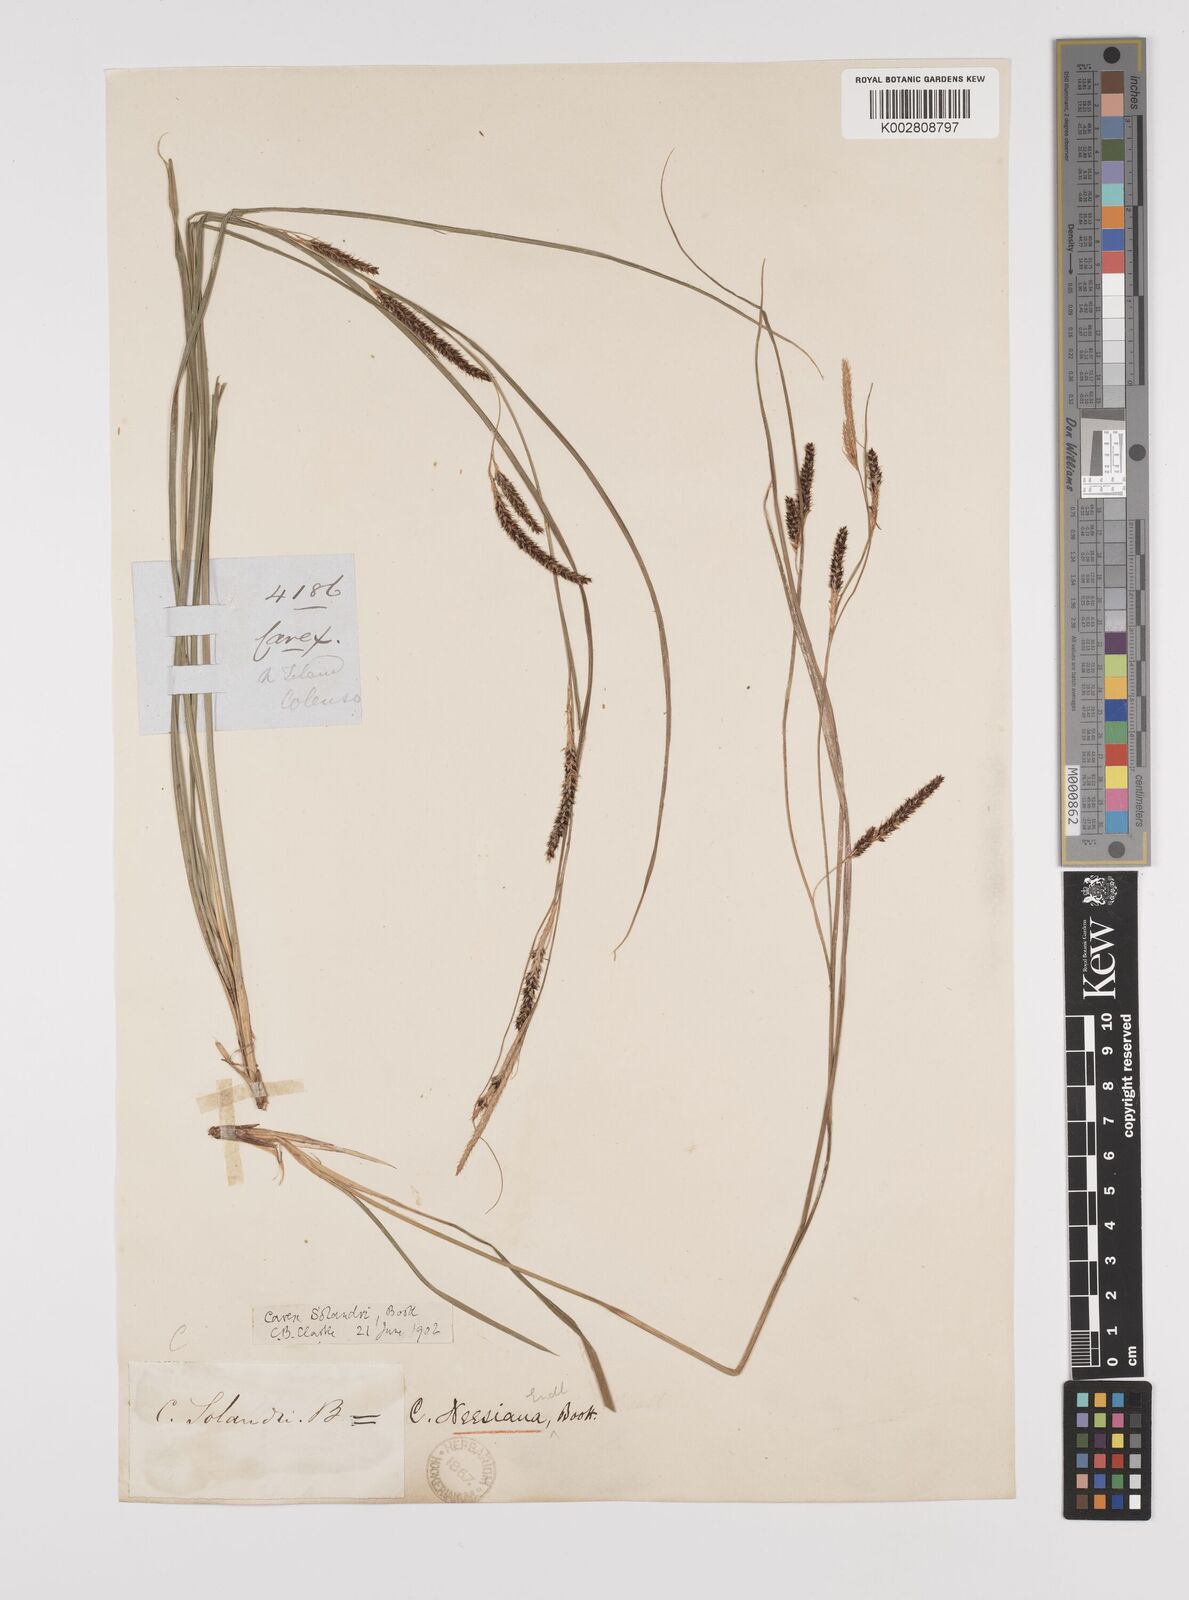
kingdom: Plantae
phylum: Tracheophyta
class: Liliopsida
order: Poales
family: Cyperaceae
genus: Carex
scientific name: Carex solandri
